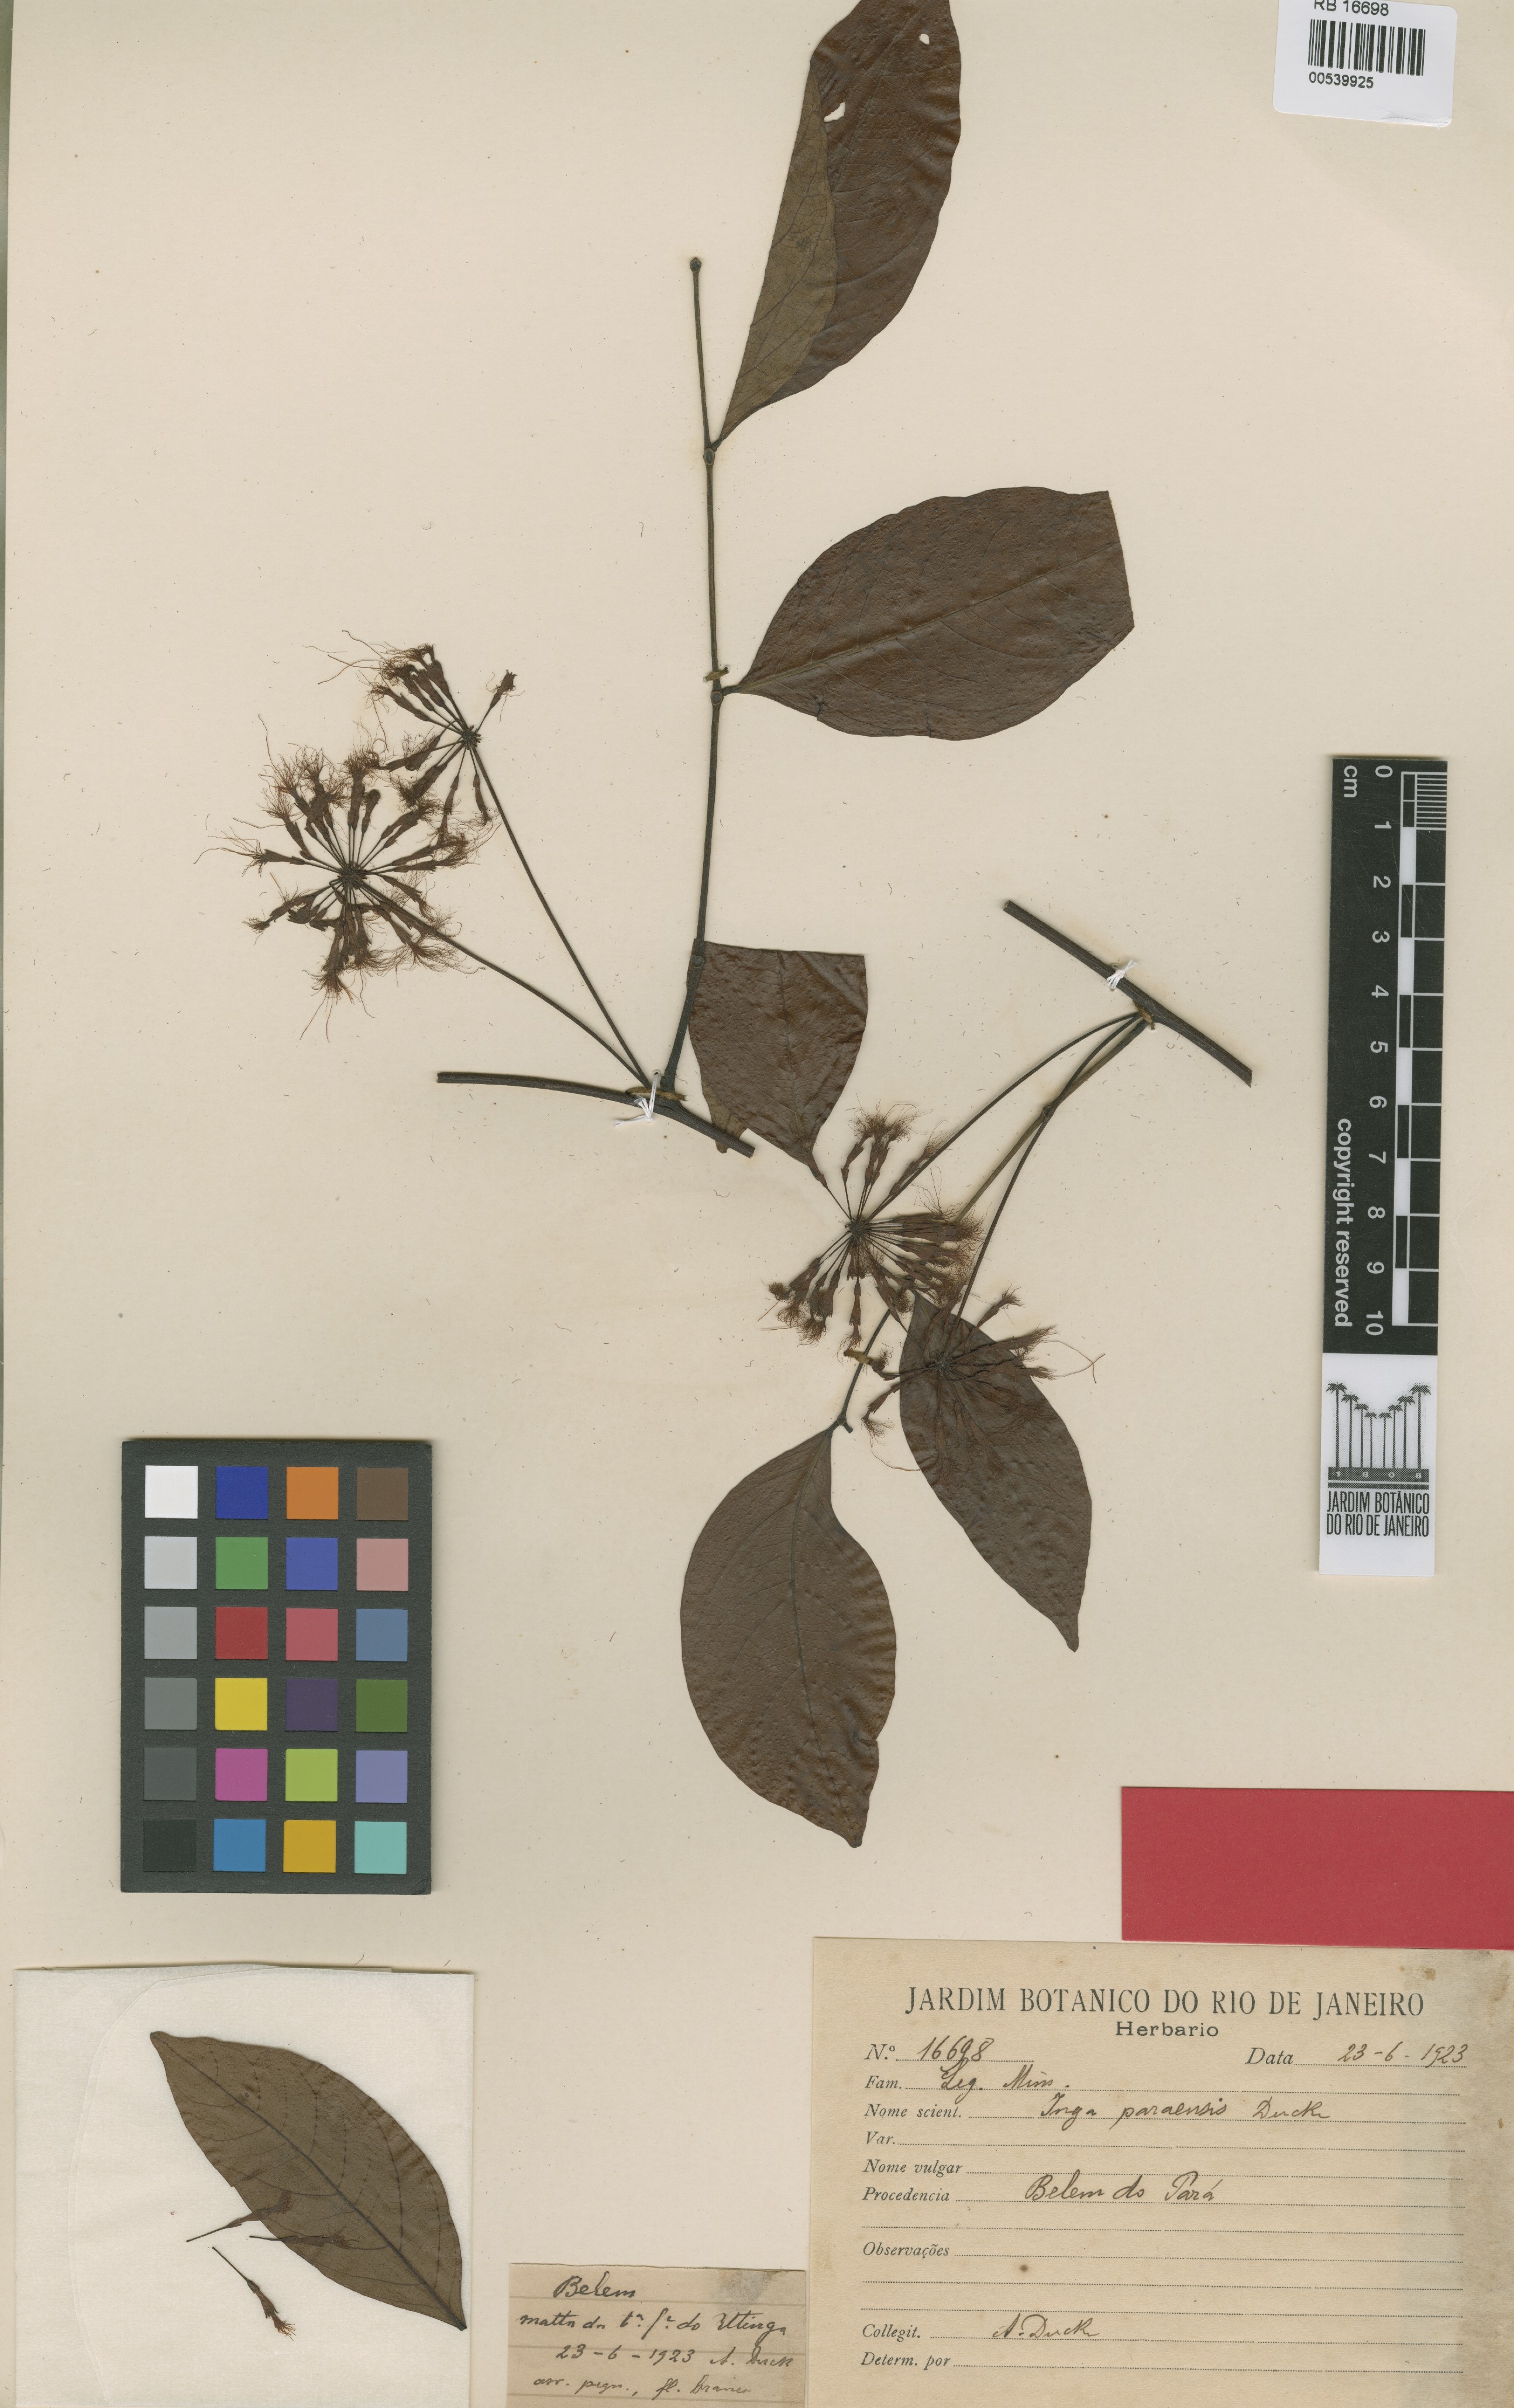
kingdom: Plantae
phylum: Tracheophyta
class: Magnoliopsida
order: Fabales
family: Fabaceae
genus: Inga
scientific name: Inga paraensis
